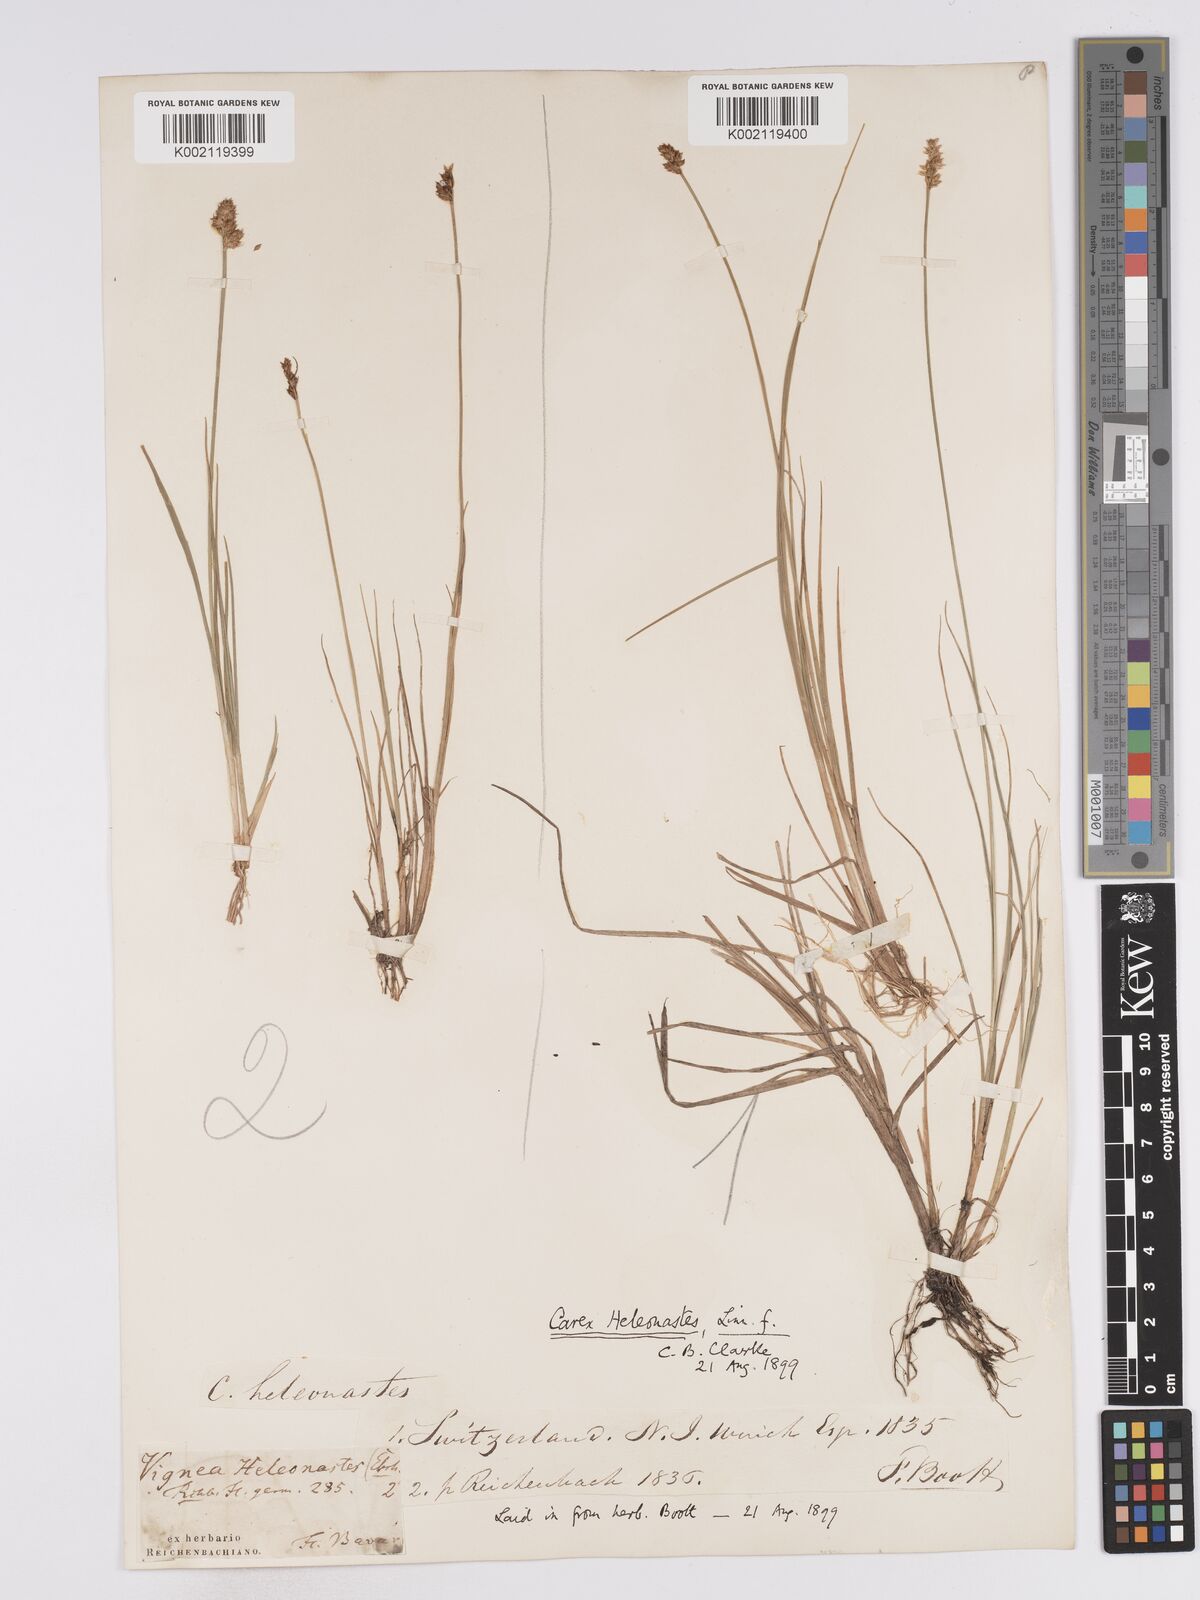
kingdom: Plantae
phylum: Tracheophyta
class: Liliopsida
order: Poales
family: Cyperaceae
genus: Carex
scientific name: Carex heleonastes
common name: Hudson bay sedge
